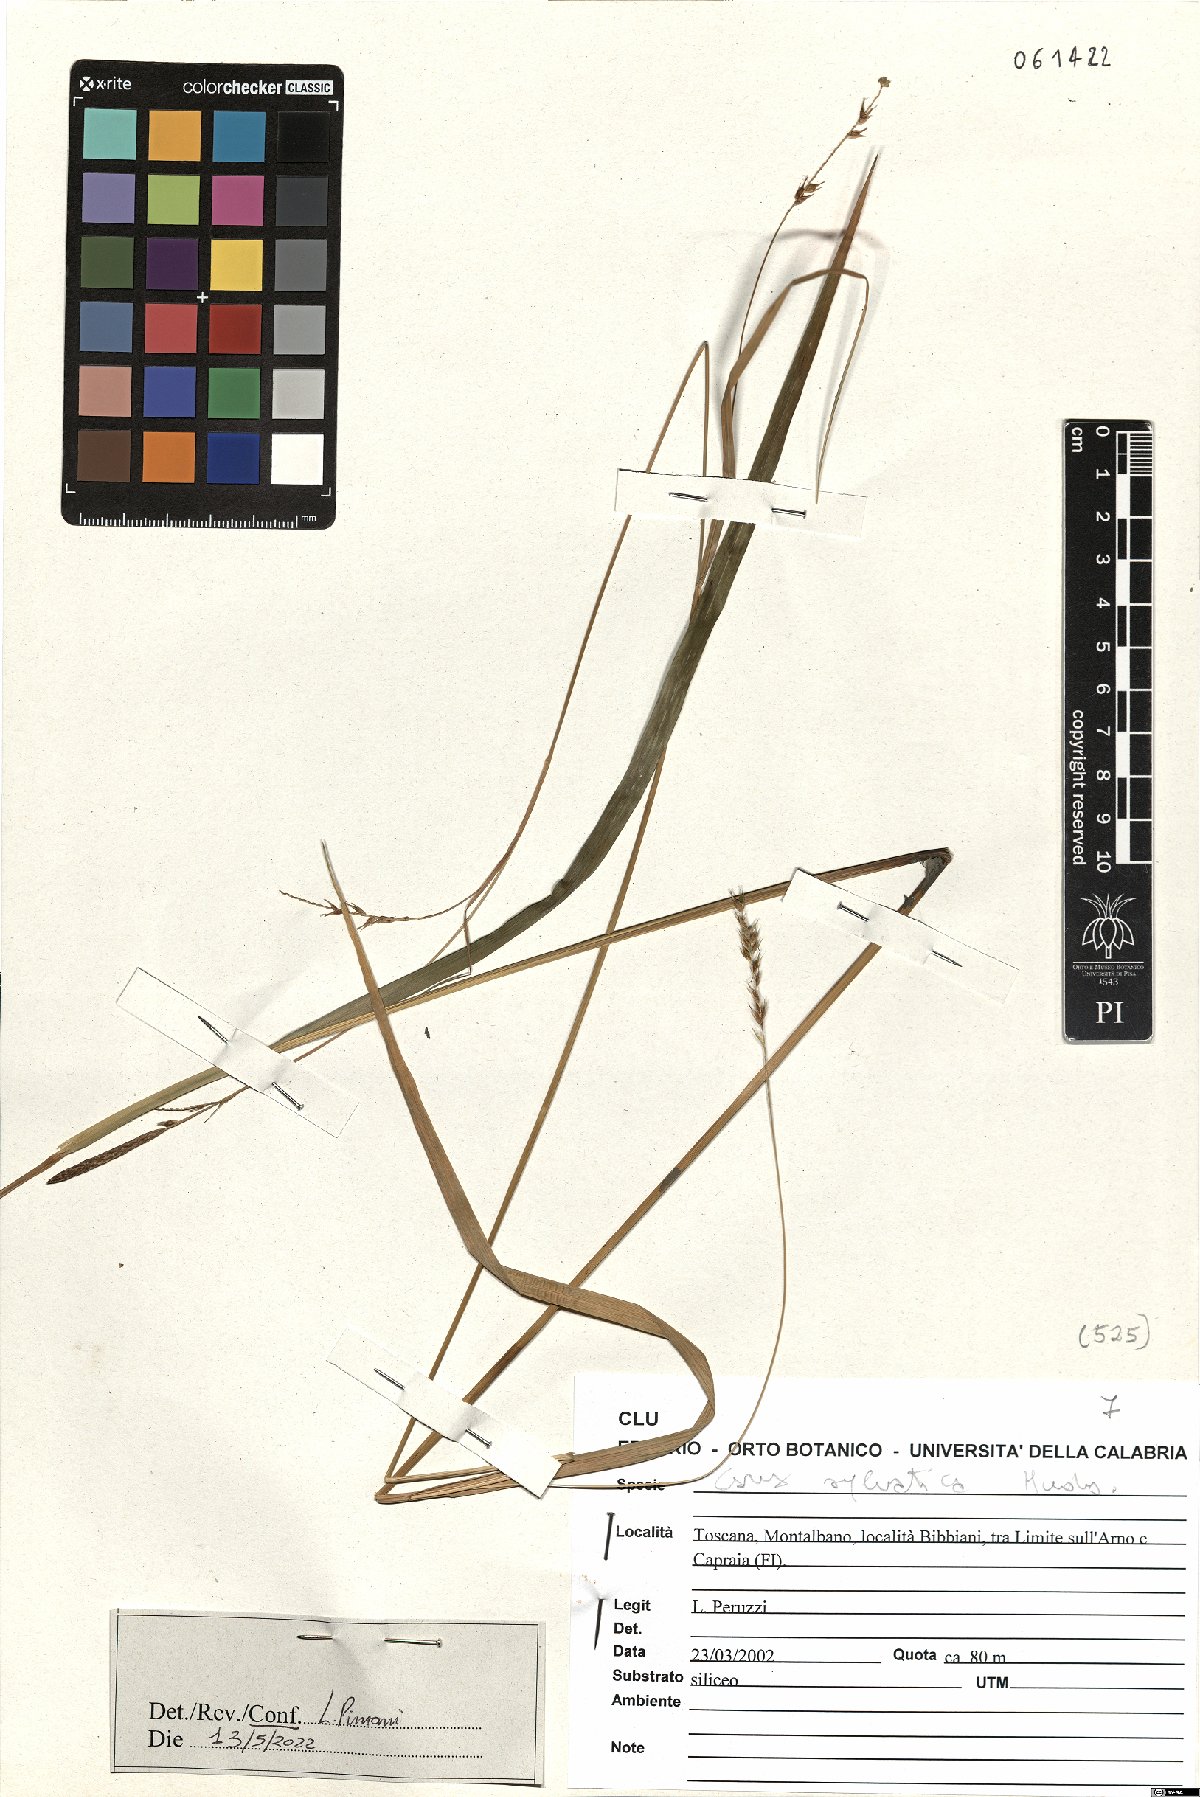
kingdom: Plantae
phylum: Tracheophyta
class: Liliopsida
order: Poales
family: Cyperaceae
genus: Carex
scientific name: Carex sylvatica
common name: Wood-sedge
